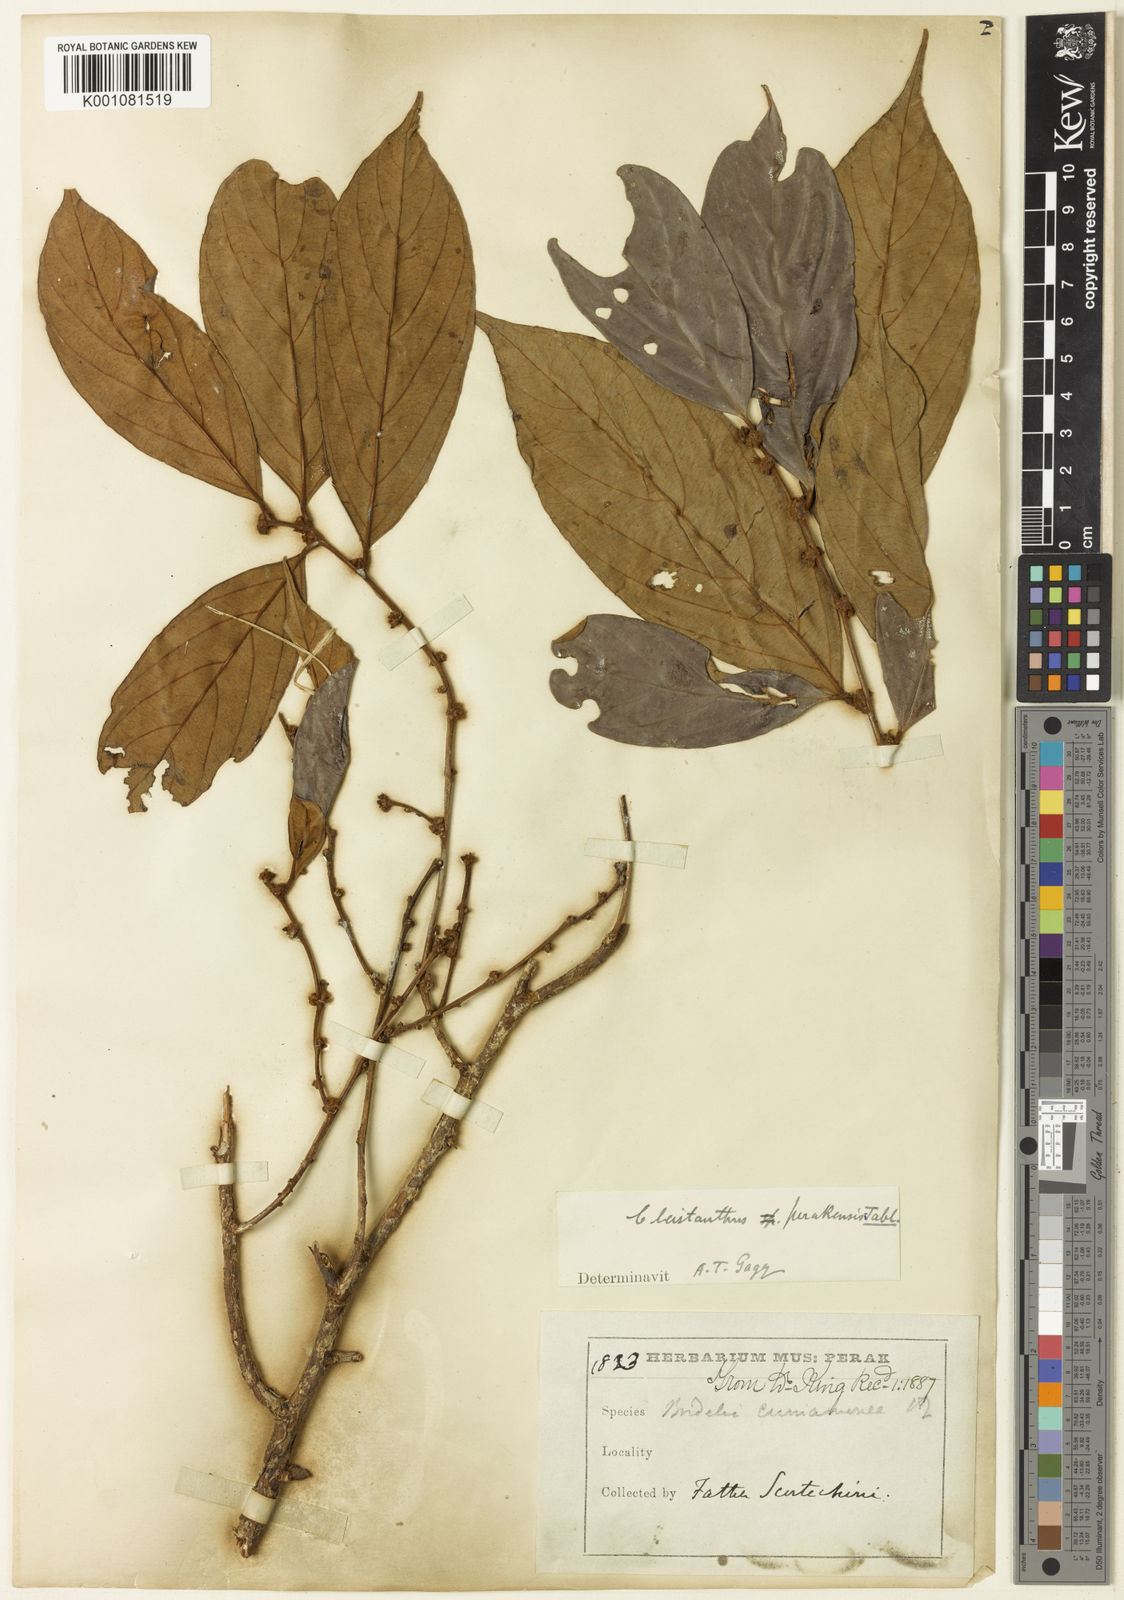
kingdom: Plantae
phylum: Tracheophyta
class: Magnoliopsida
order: Malpighiales
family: Phyllanthaceae
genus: Cleistanthus
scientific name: Cleistanthus vestitus
